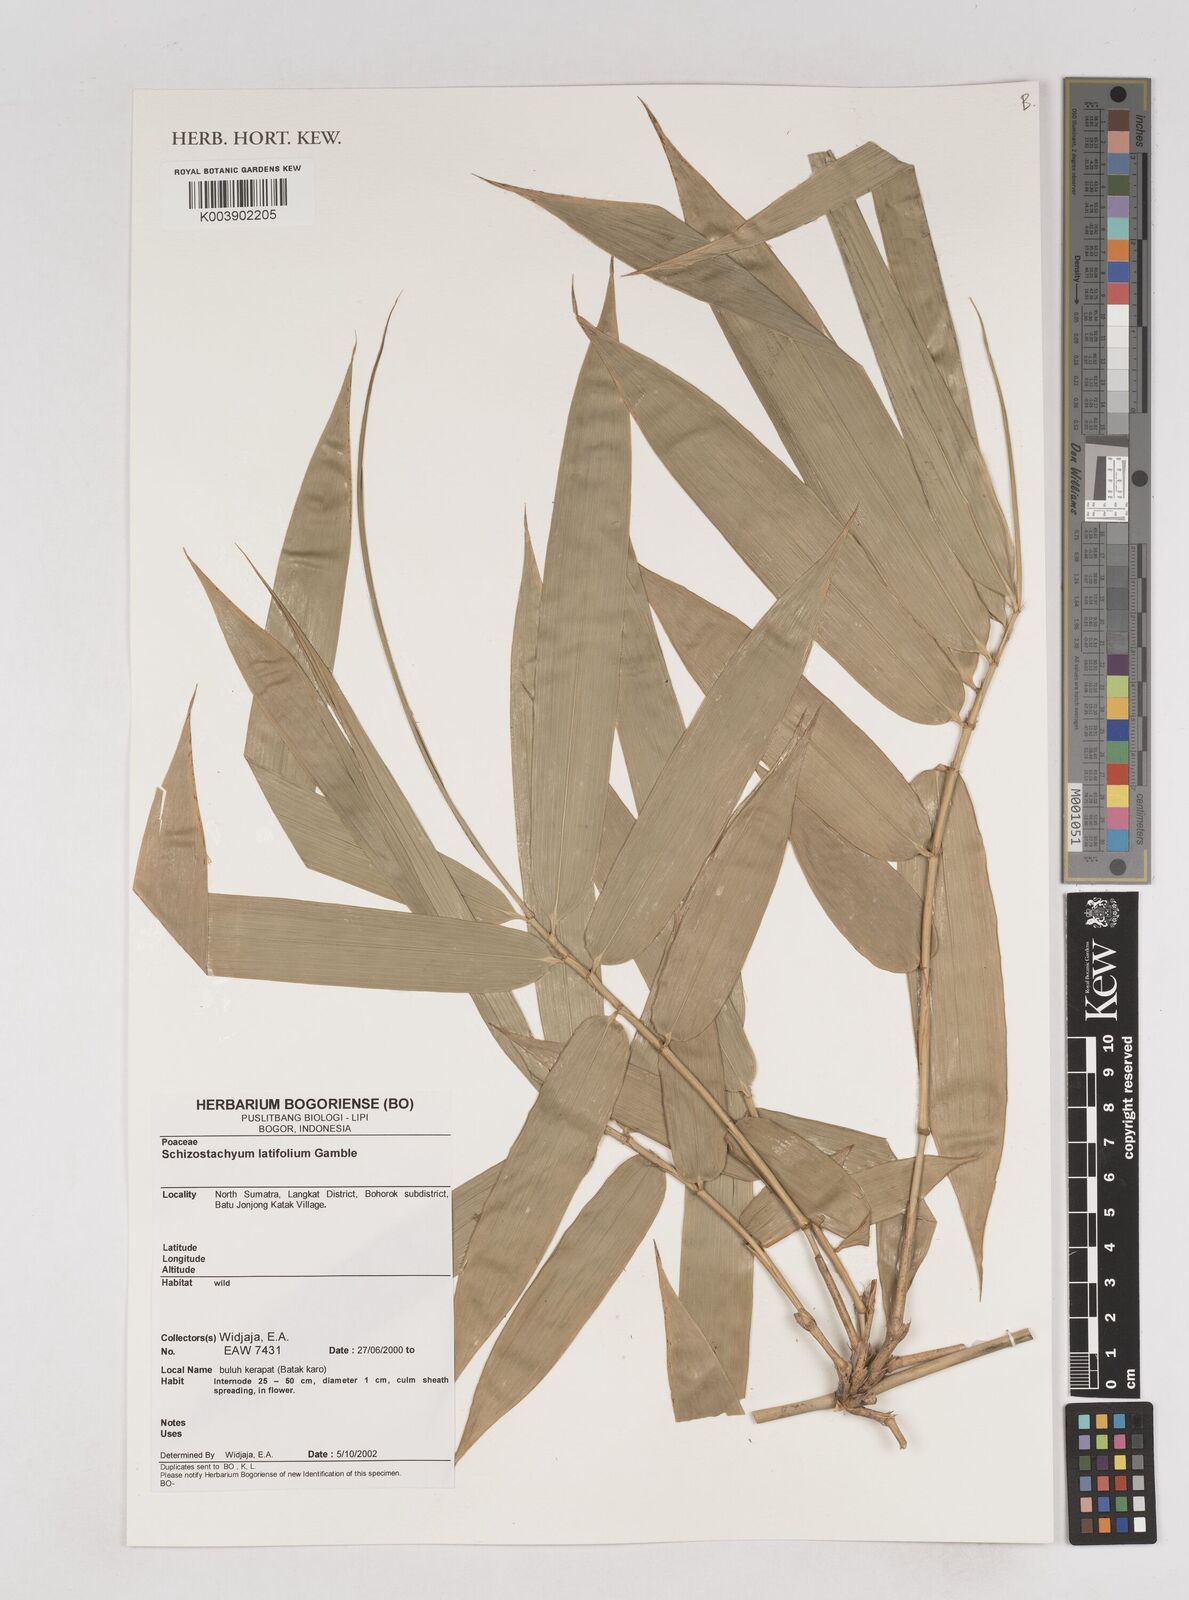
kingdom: Plantae
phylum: Tracheophyta
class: Liliopsida
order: Poales
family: Poaceae
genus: Schizostachyum
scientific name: Schizostachyum latifolium
